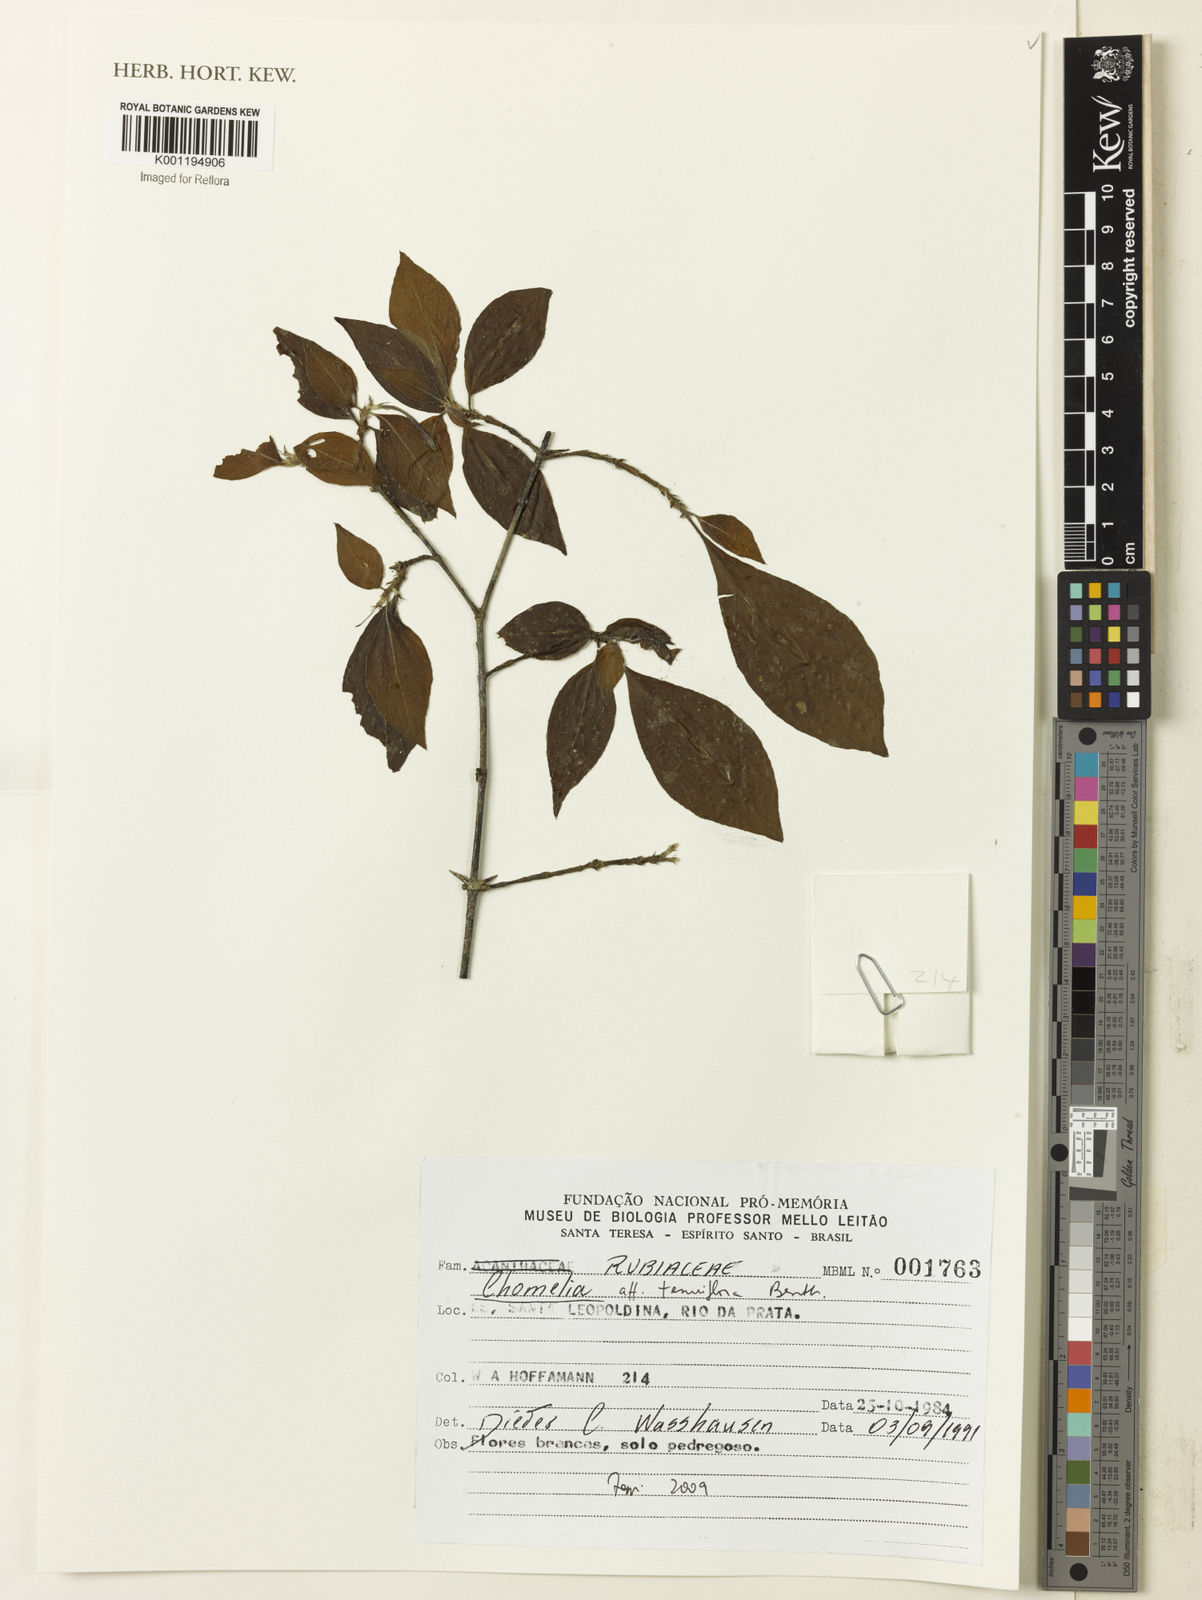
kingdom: Plantae
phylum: Tracheophyta
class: Magnoliopsida
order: Gentianales
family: Rubiaceae
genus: Chomelia
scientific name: Chomelia tenuiflora
